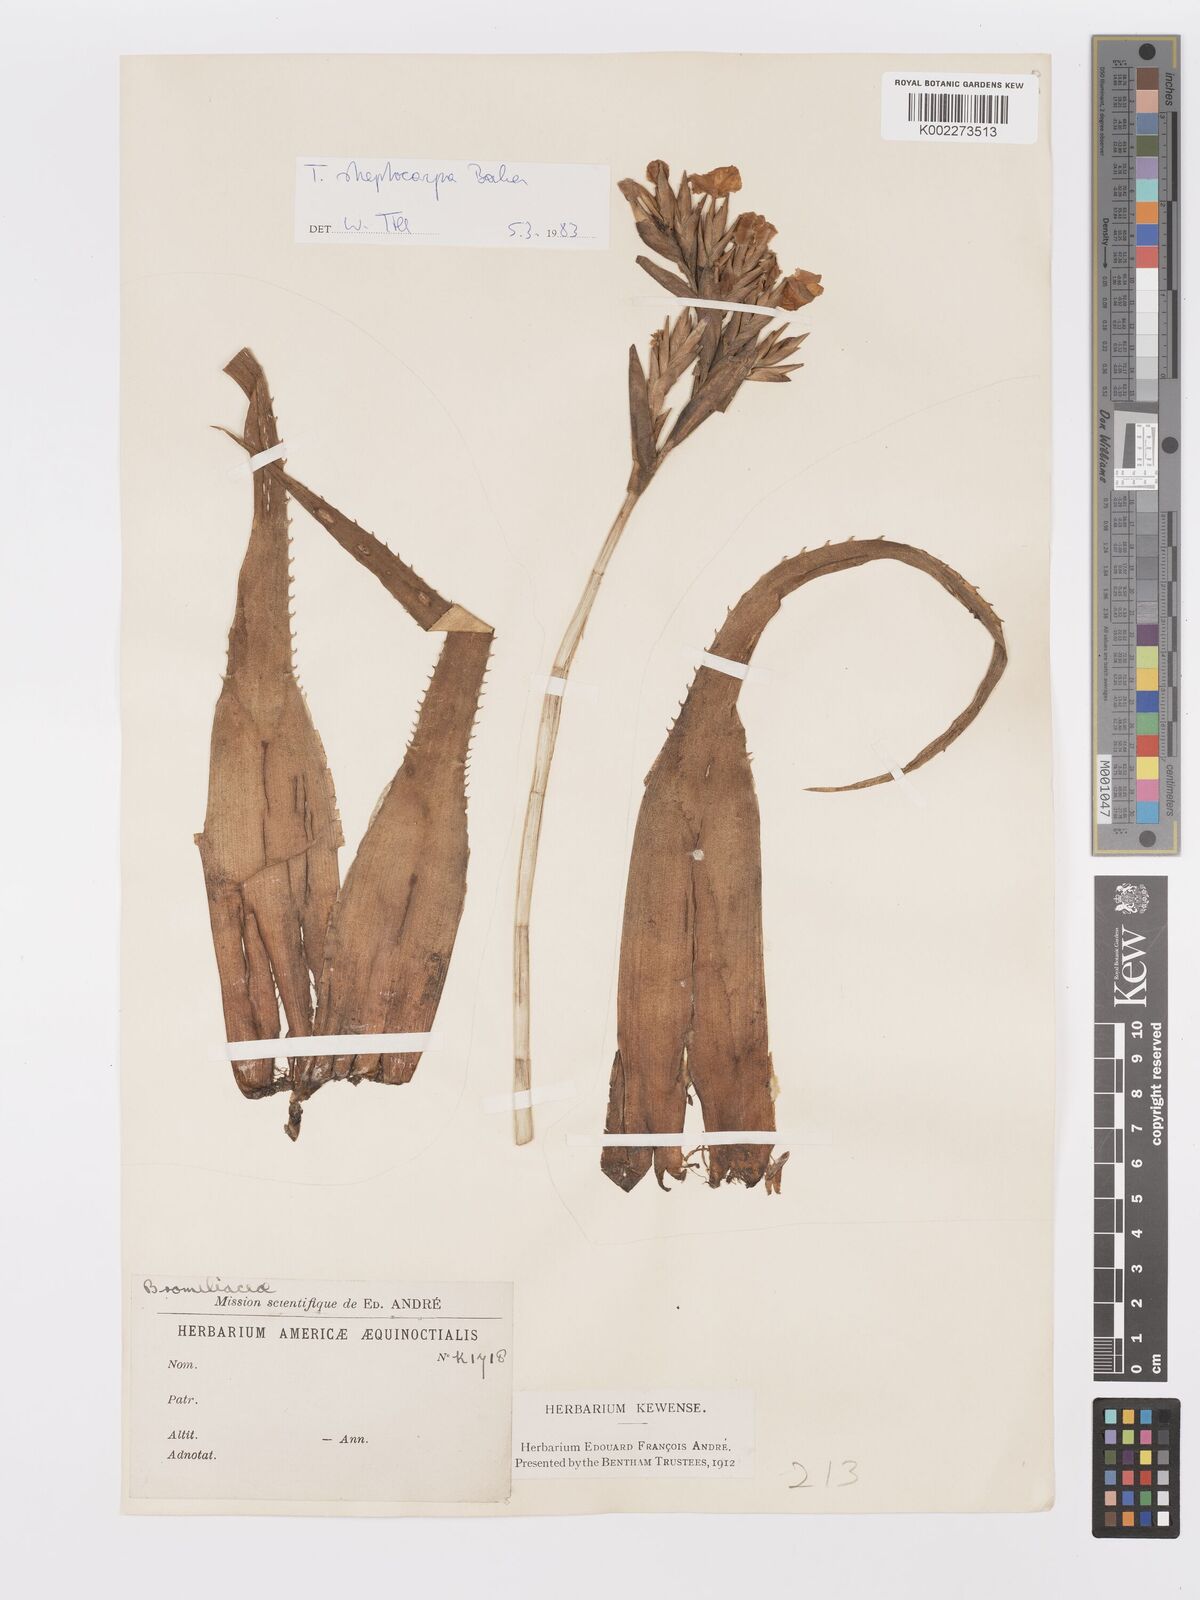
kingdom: Plantae
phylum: Tracheophyta
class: Liliopsida
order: Poales
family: Bromeliaceae
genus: Tillandsia
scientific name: Tillandsia streptocarpa
